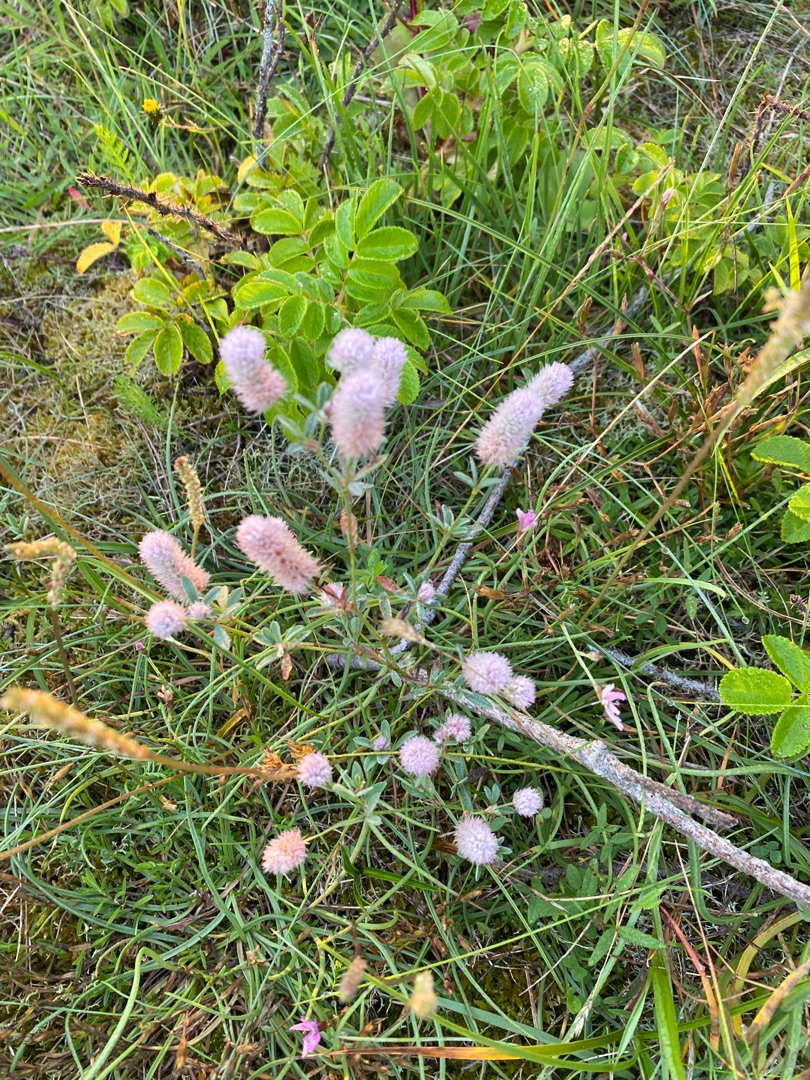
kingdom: Plantae
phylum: Tracheophyta
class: Magnoliopsida
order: Fabales
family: Fabaceae
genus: Trifolium
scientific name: Trifolium arvense
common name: Hare-kløver
